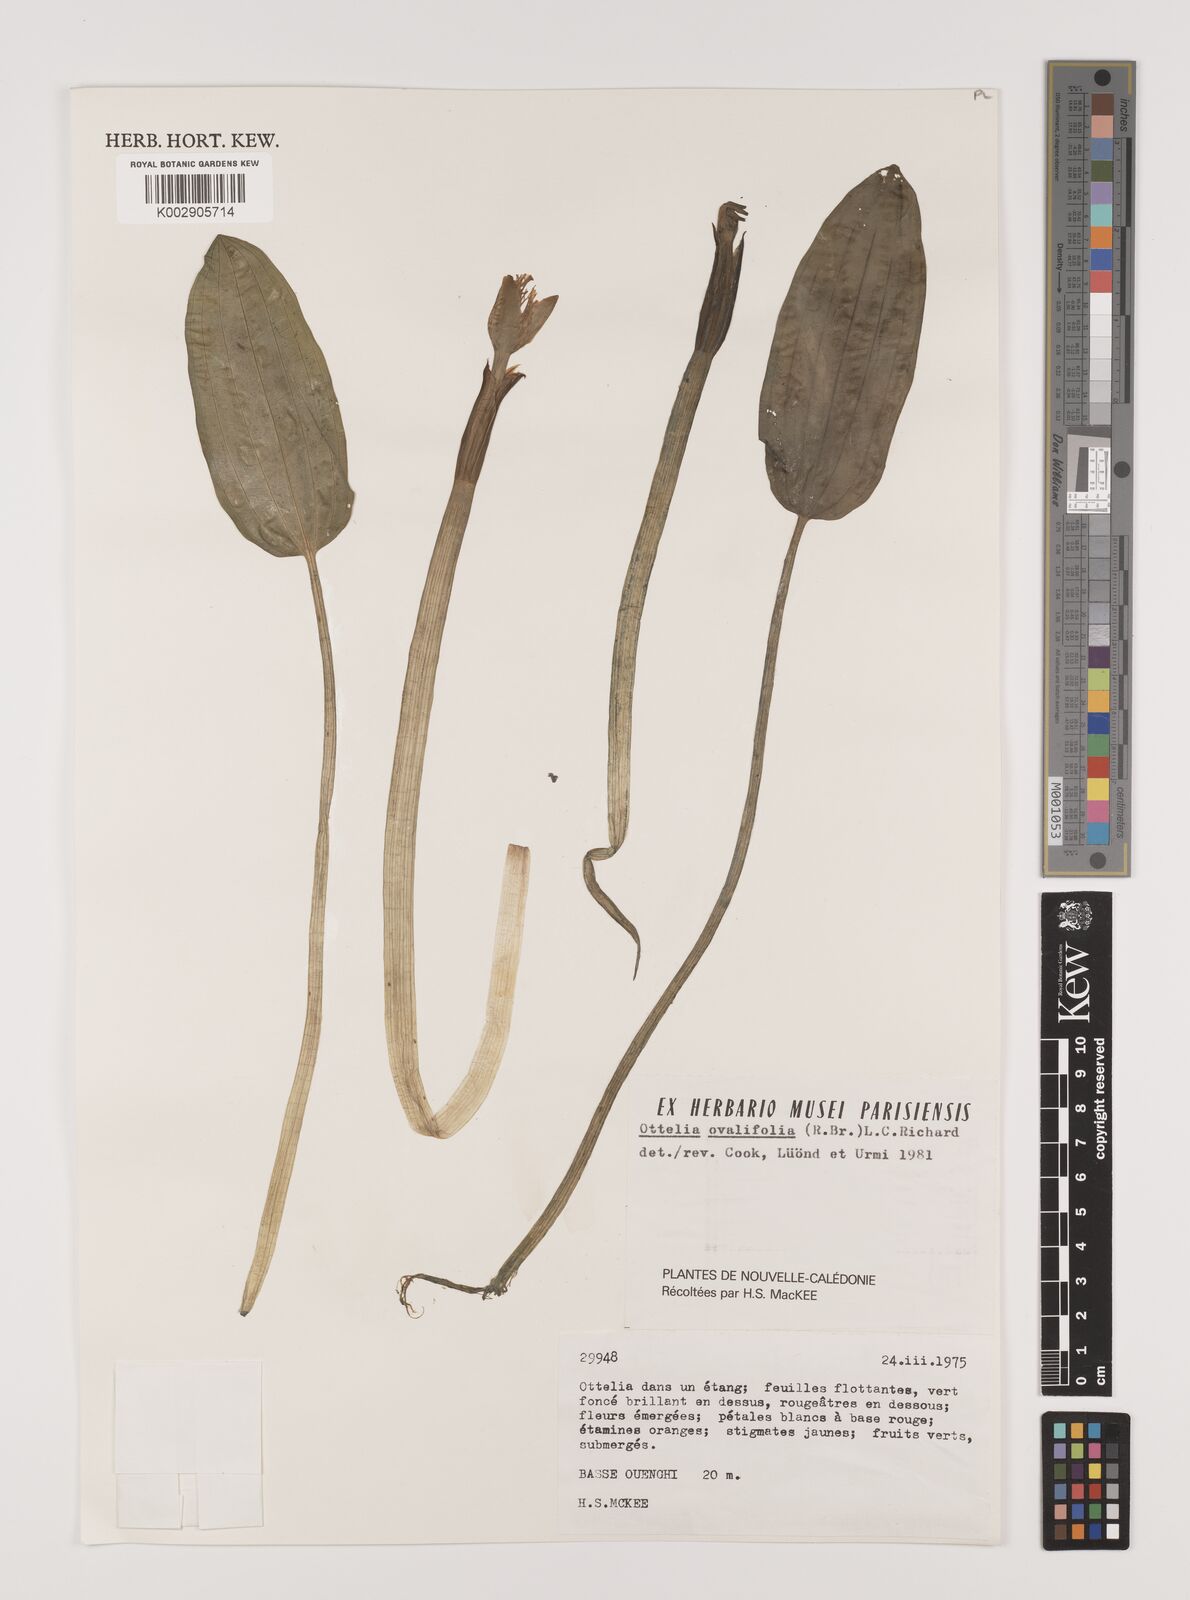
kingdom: Plantae
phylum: Tracheophyta
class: Liliopsida
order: Alismatales
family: Hydrocharitaceae
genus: Ottelia
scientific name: Ottelia ovalifolia
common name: Swamp-lily
